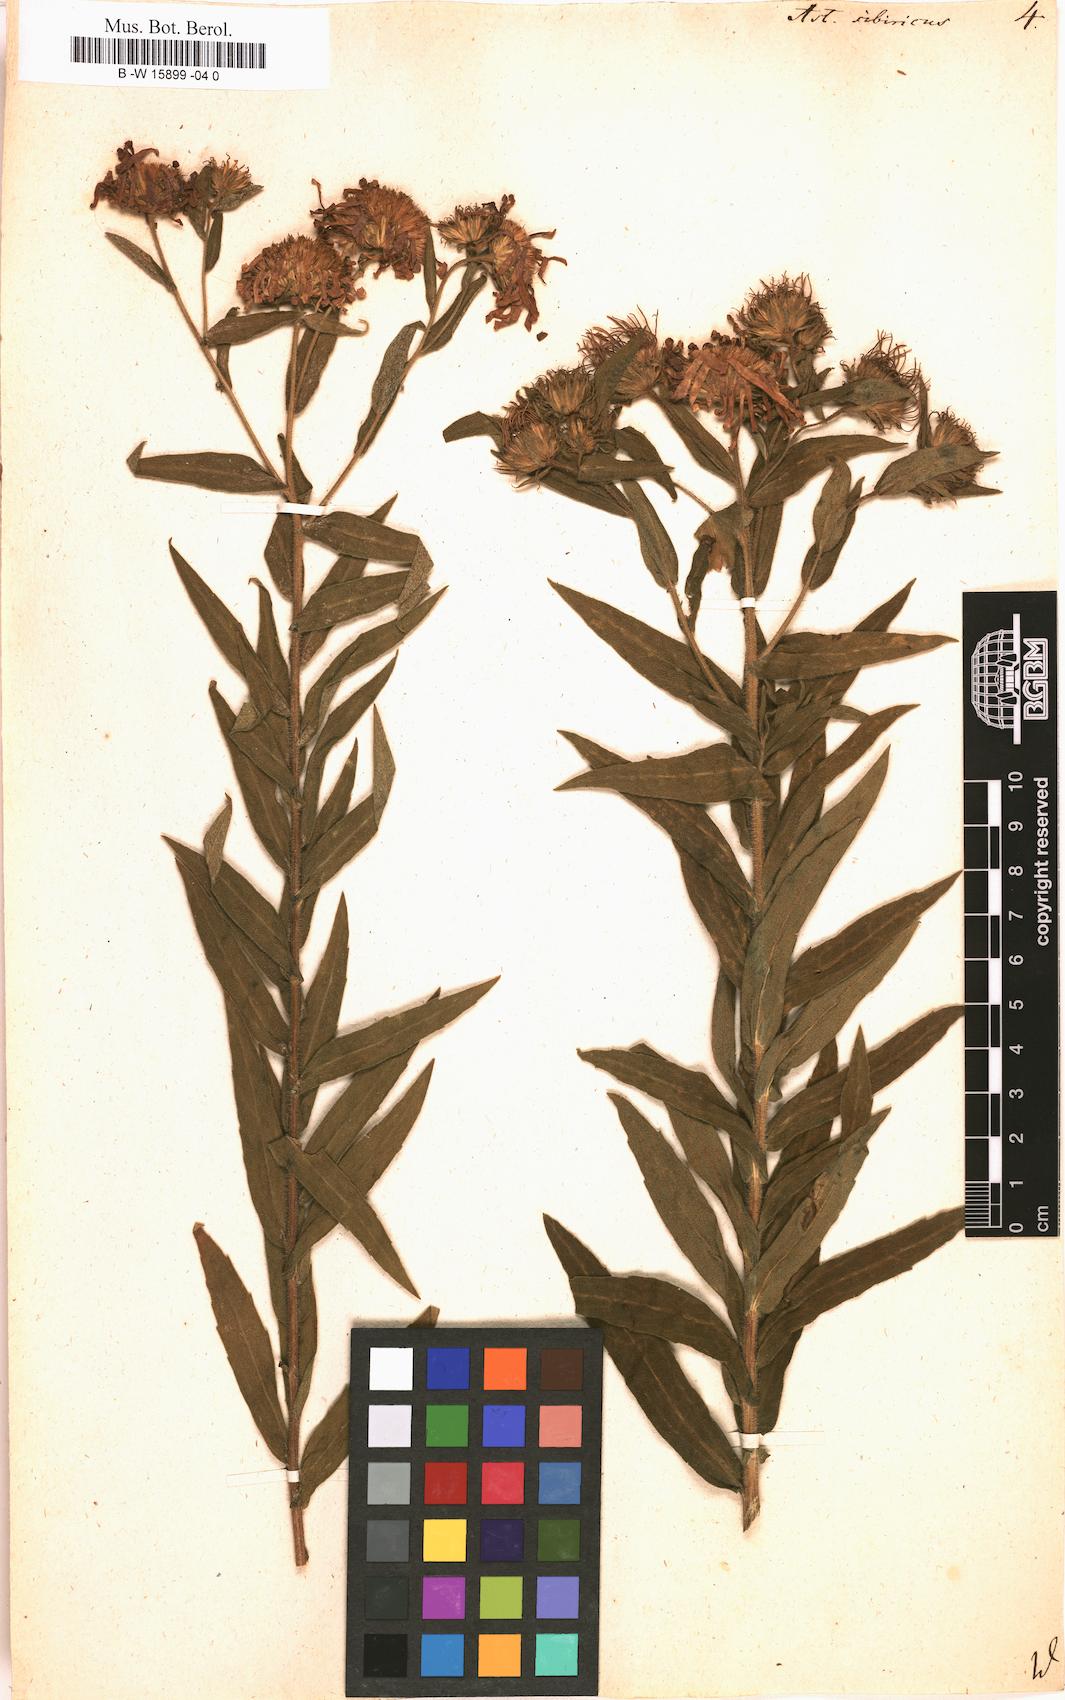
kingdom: Plantae
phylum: Tracheophyta
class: Magnoliopsida
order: Asterales
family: Asteraceae
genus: Eurybia
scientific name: Eurybia sibirica
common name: Arctic aster
